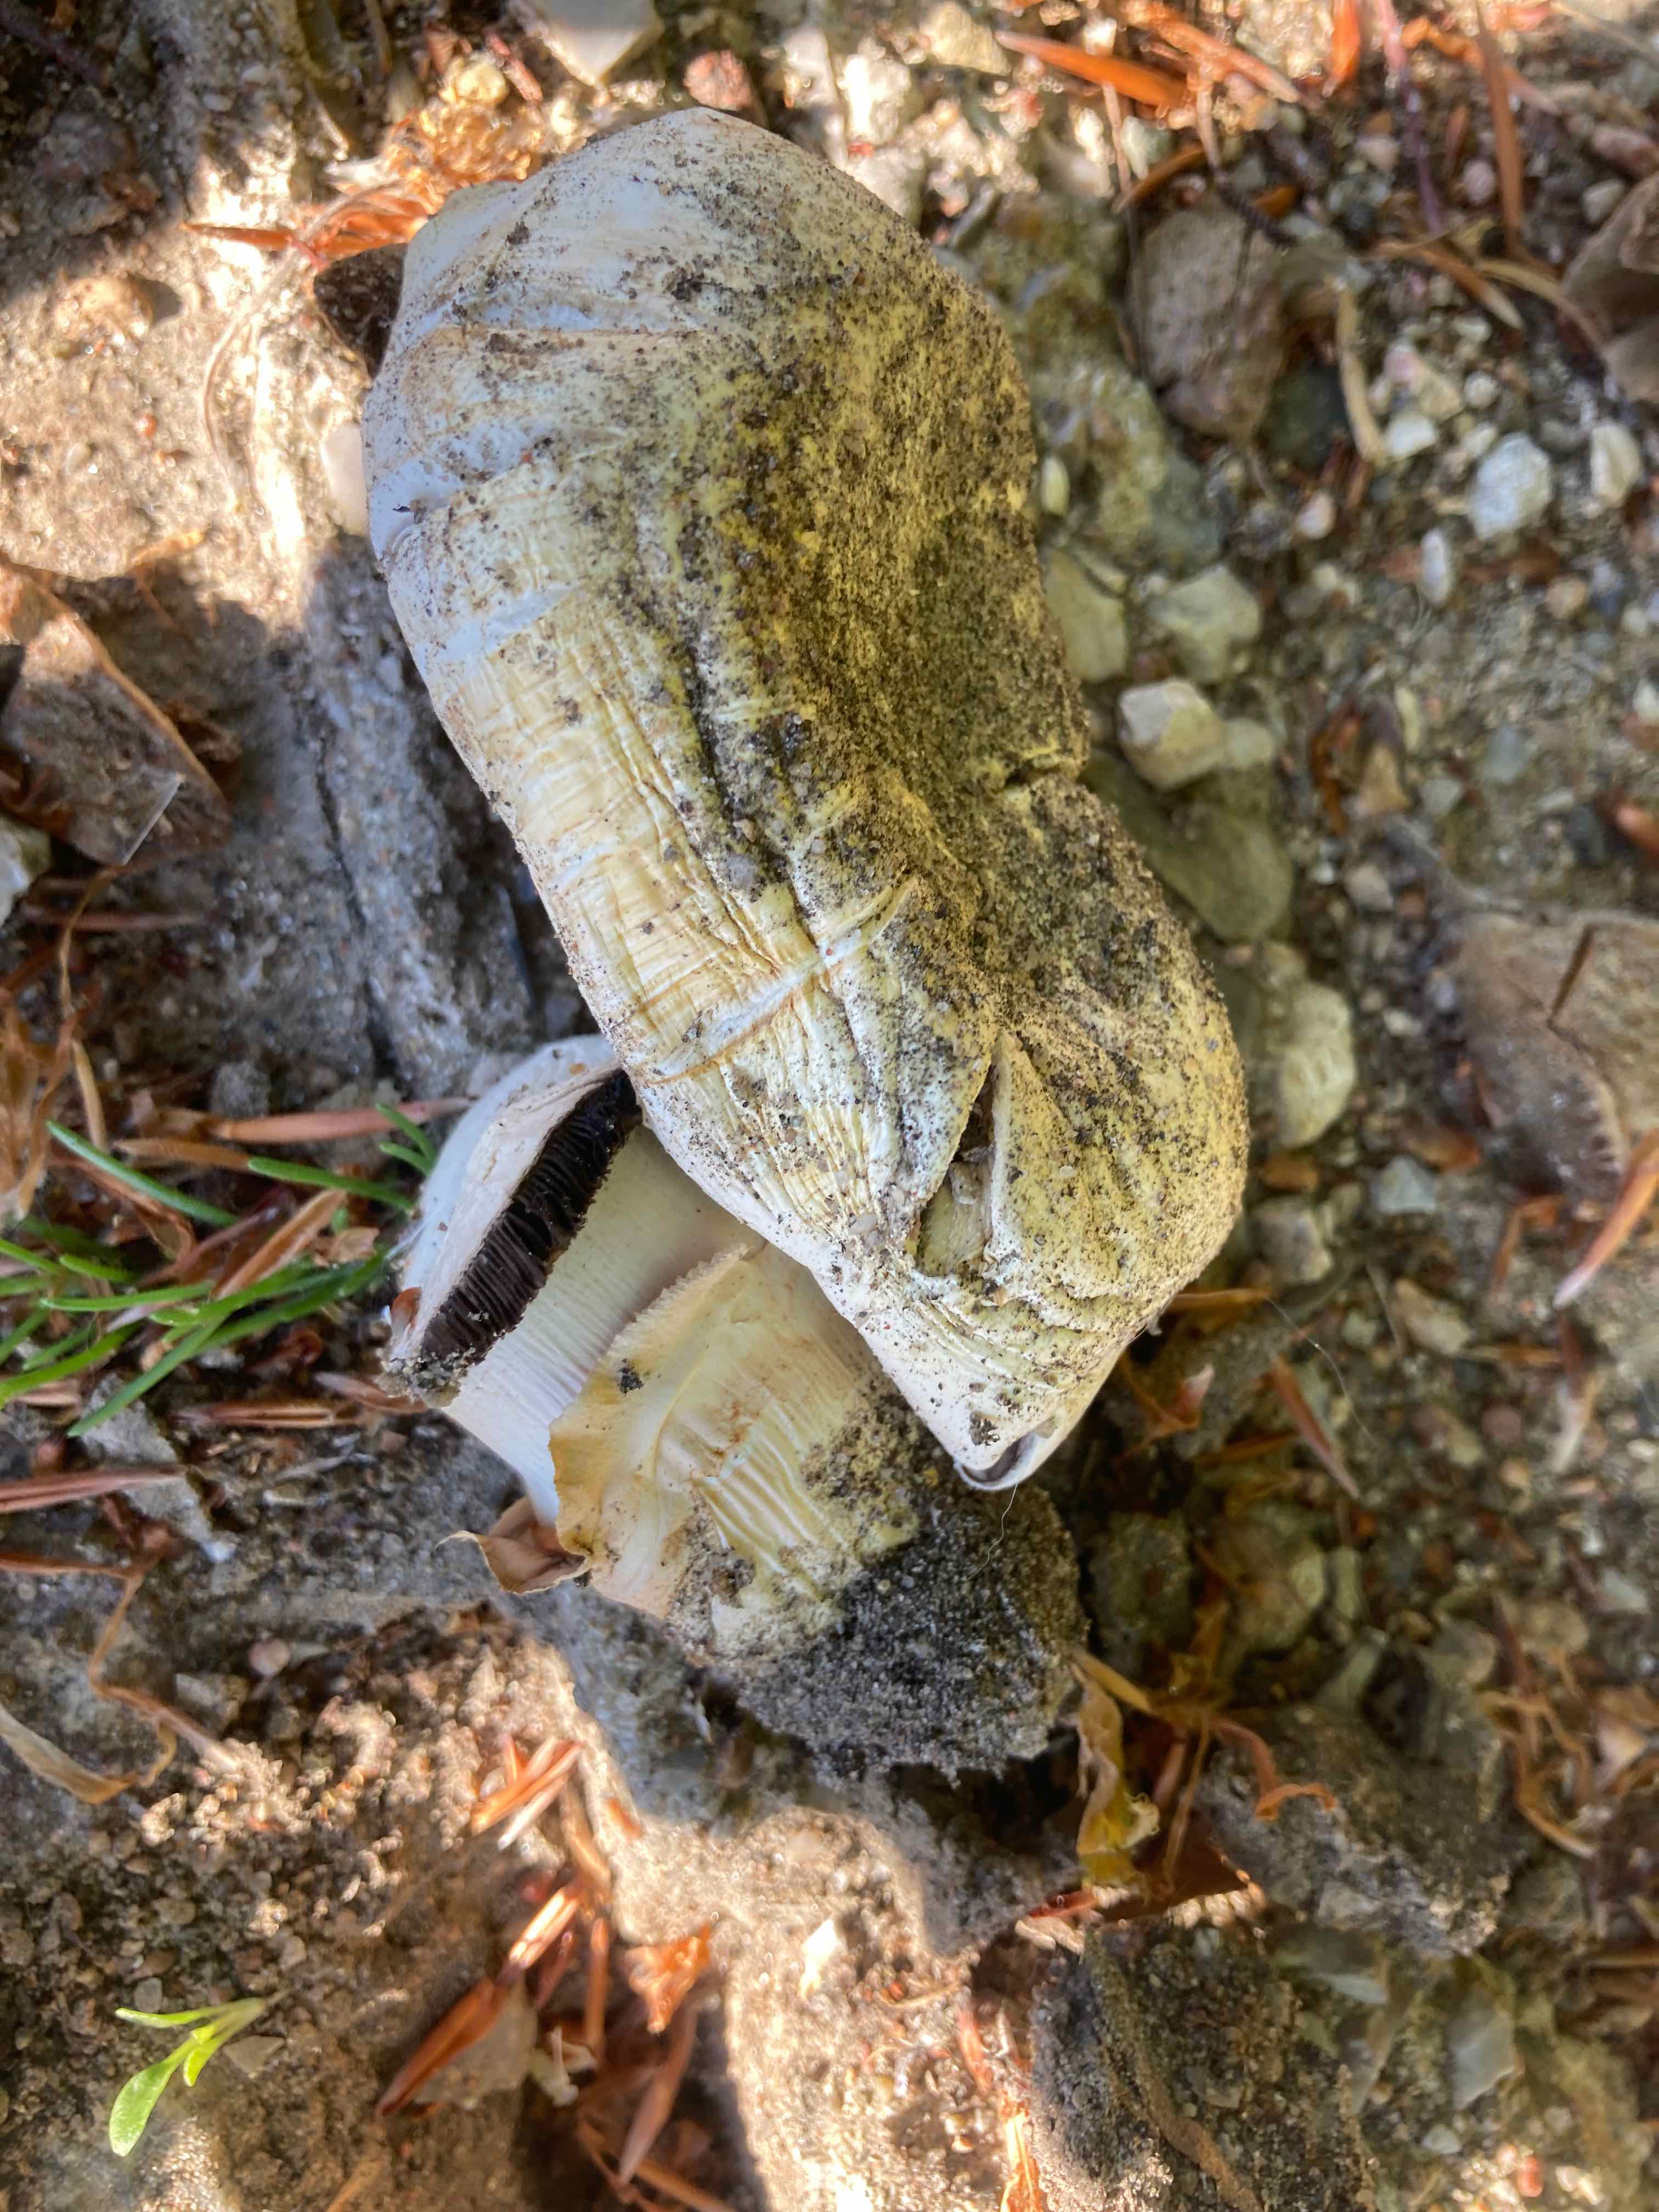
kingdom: Fungi
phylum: Basidiomycota
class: Agaricomycetes
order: Agaricales
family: Agaricaceae
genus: Agaricus
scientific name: Agaricus bitorquis
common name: vej-champignon
